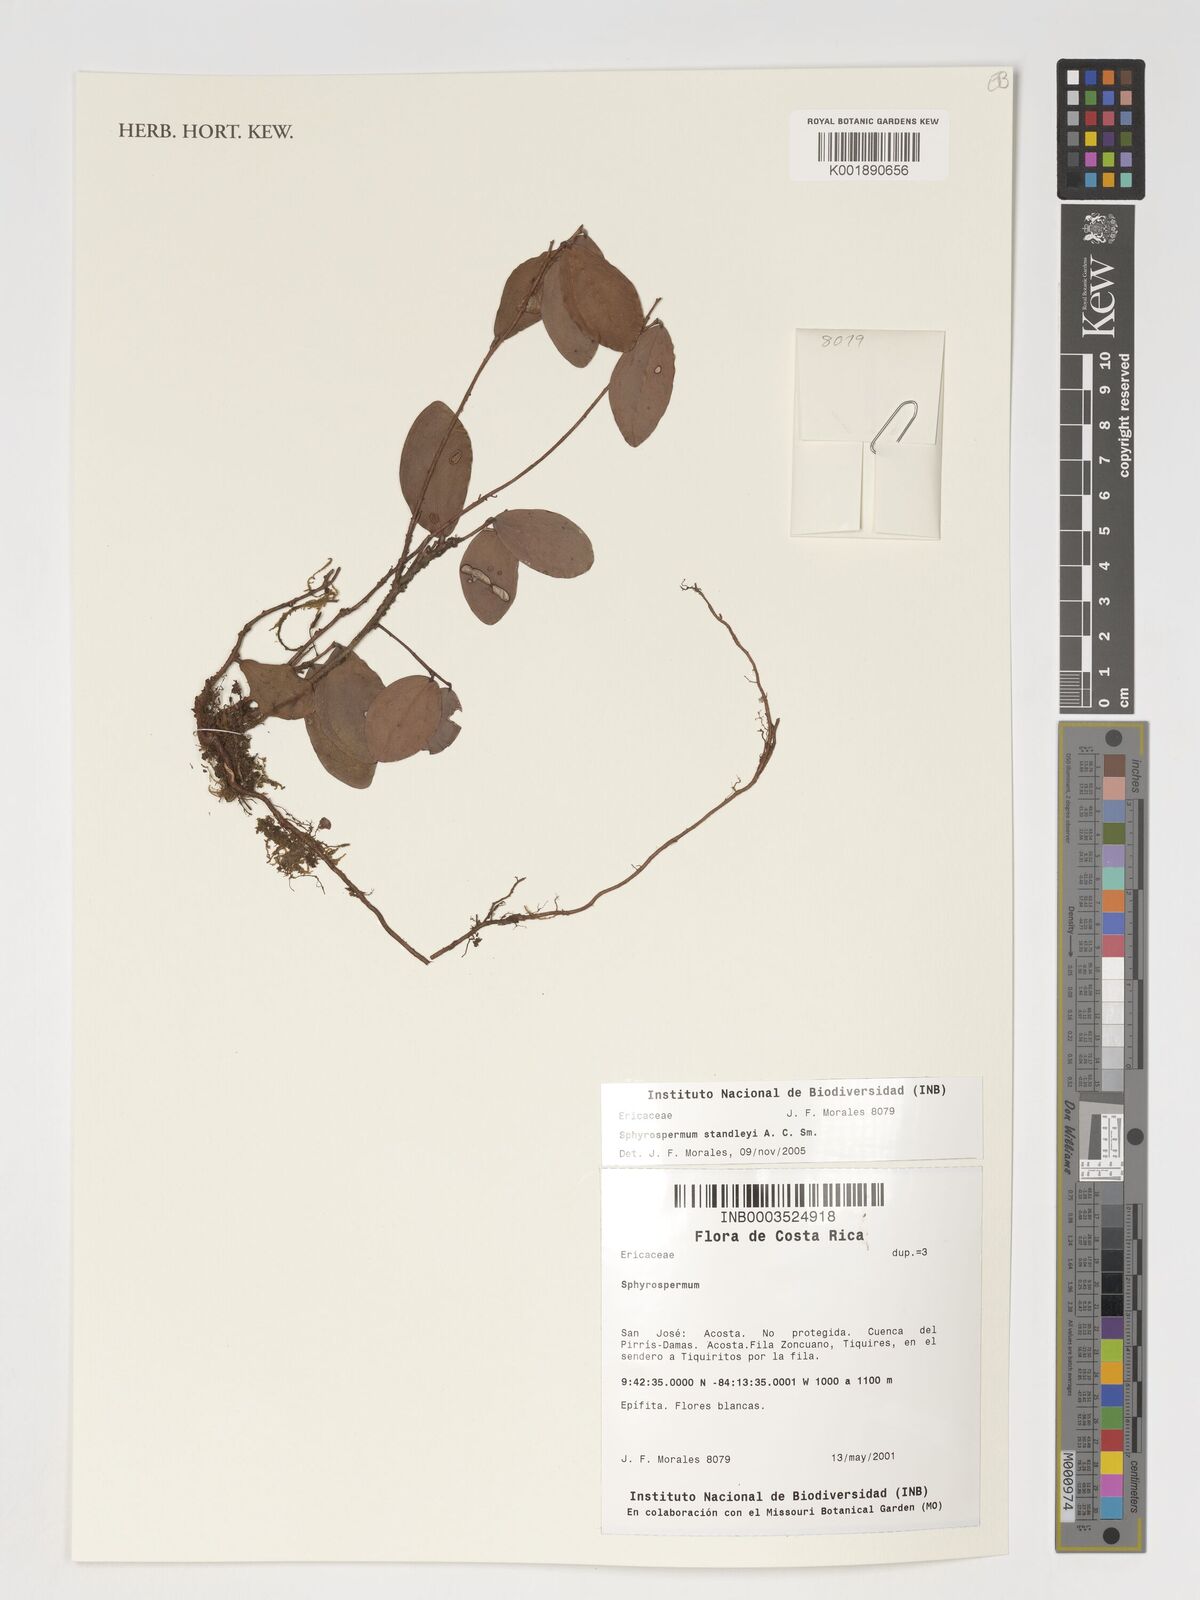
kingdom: Plantae
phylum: Tracheophyta
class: Magnoliopsida
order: Ericales
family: Ericaceae
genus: Sphyrospermum
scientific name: Sphyrospermum standleyi
